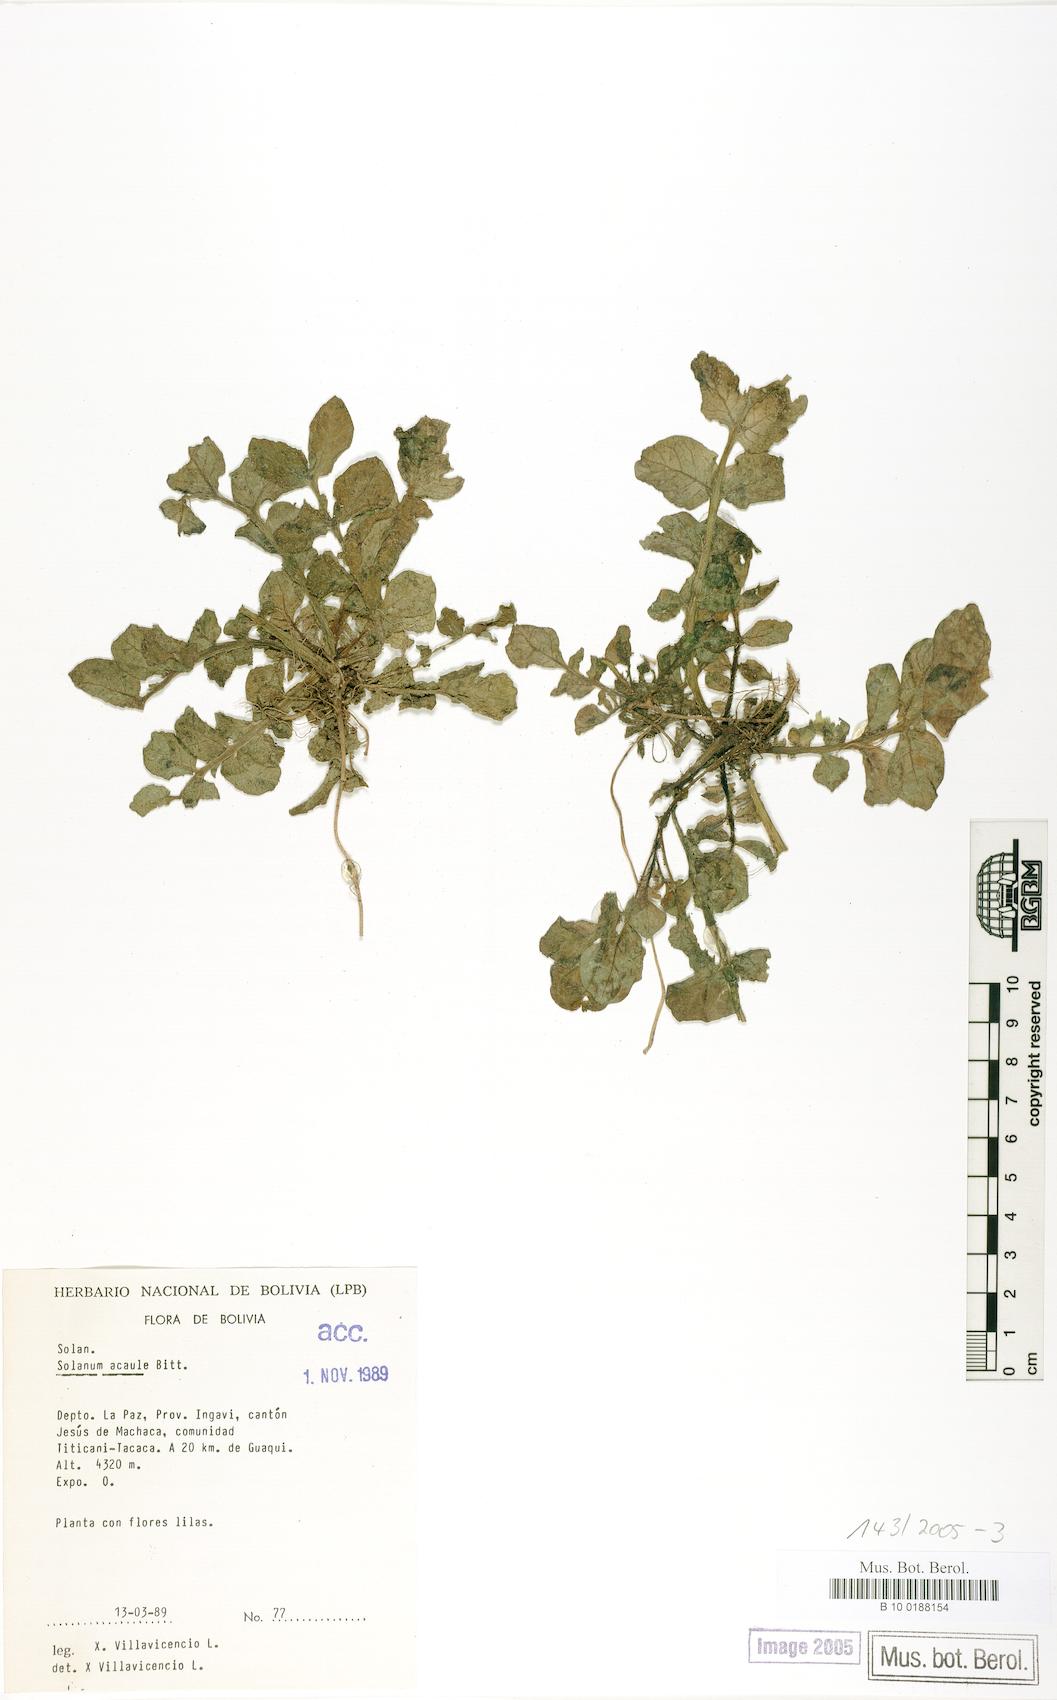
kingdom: Plantae
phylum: Tracheophyta
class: Magnoliopsida
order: Solanales
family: Solanaceae
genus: Solanum
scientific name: Solanum acaule
